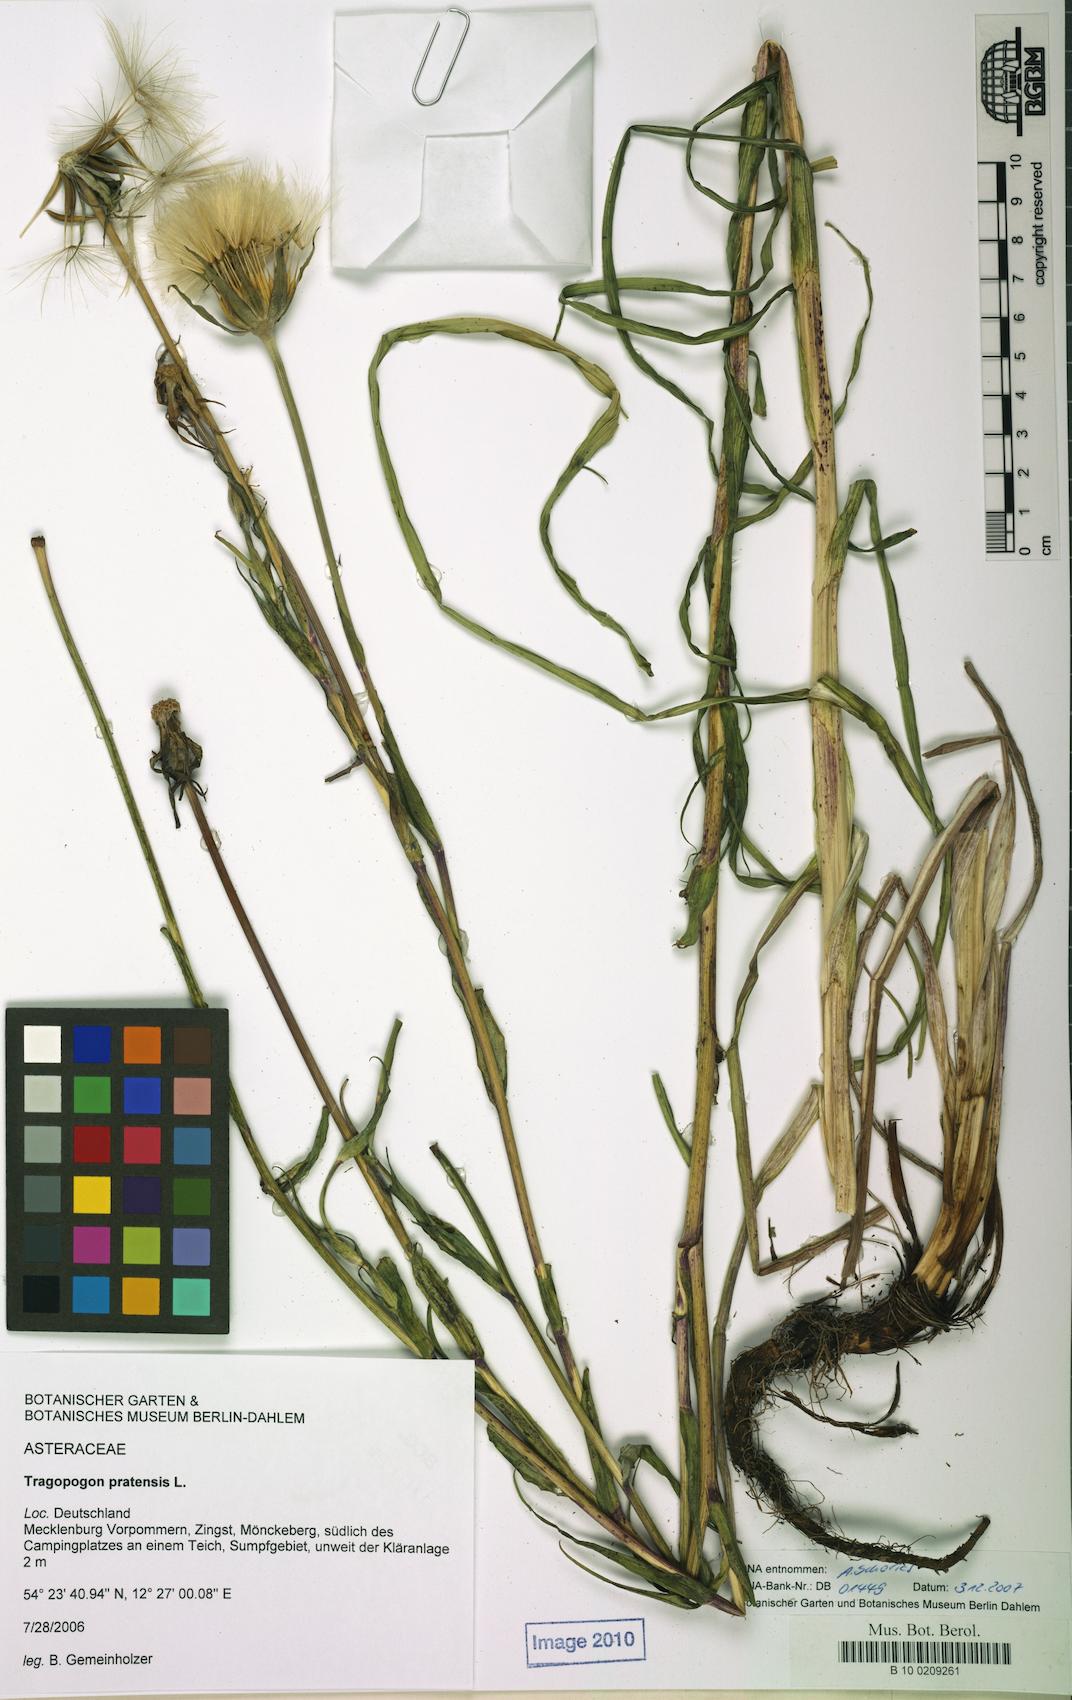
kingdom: Plantae
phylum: Tracheophyta
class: Magnoliopsida
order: Asterales
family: Asteraceae
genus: Tragopogon
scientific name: Tragopogon pratensis
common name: Goat's-beard
